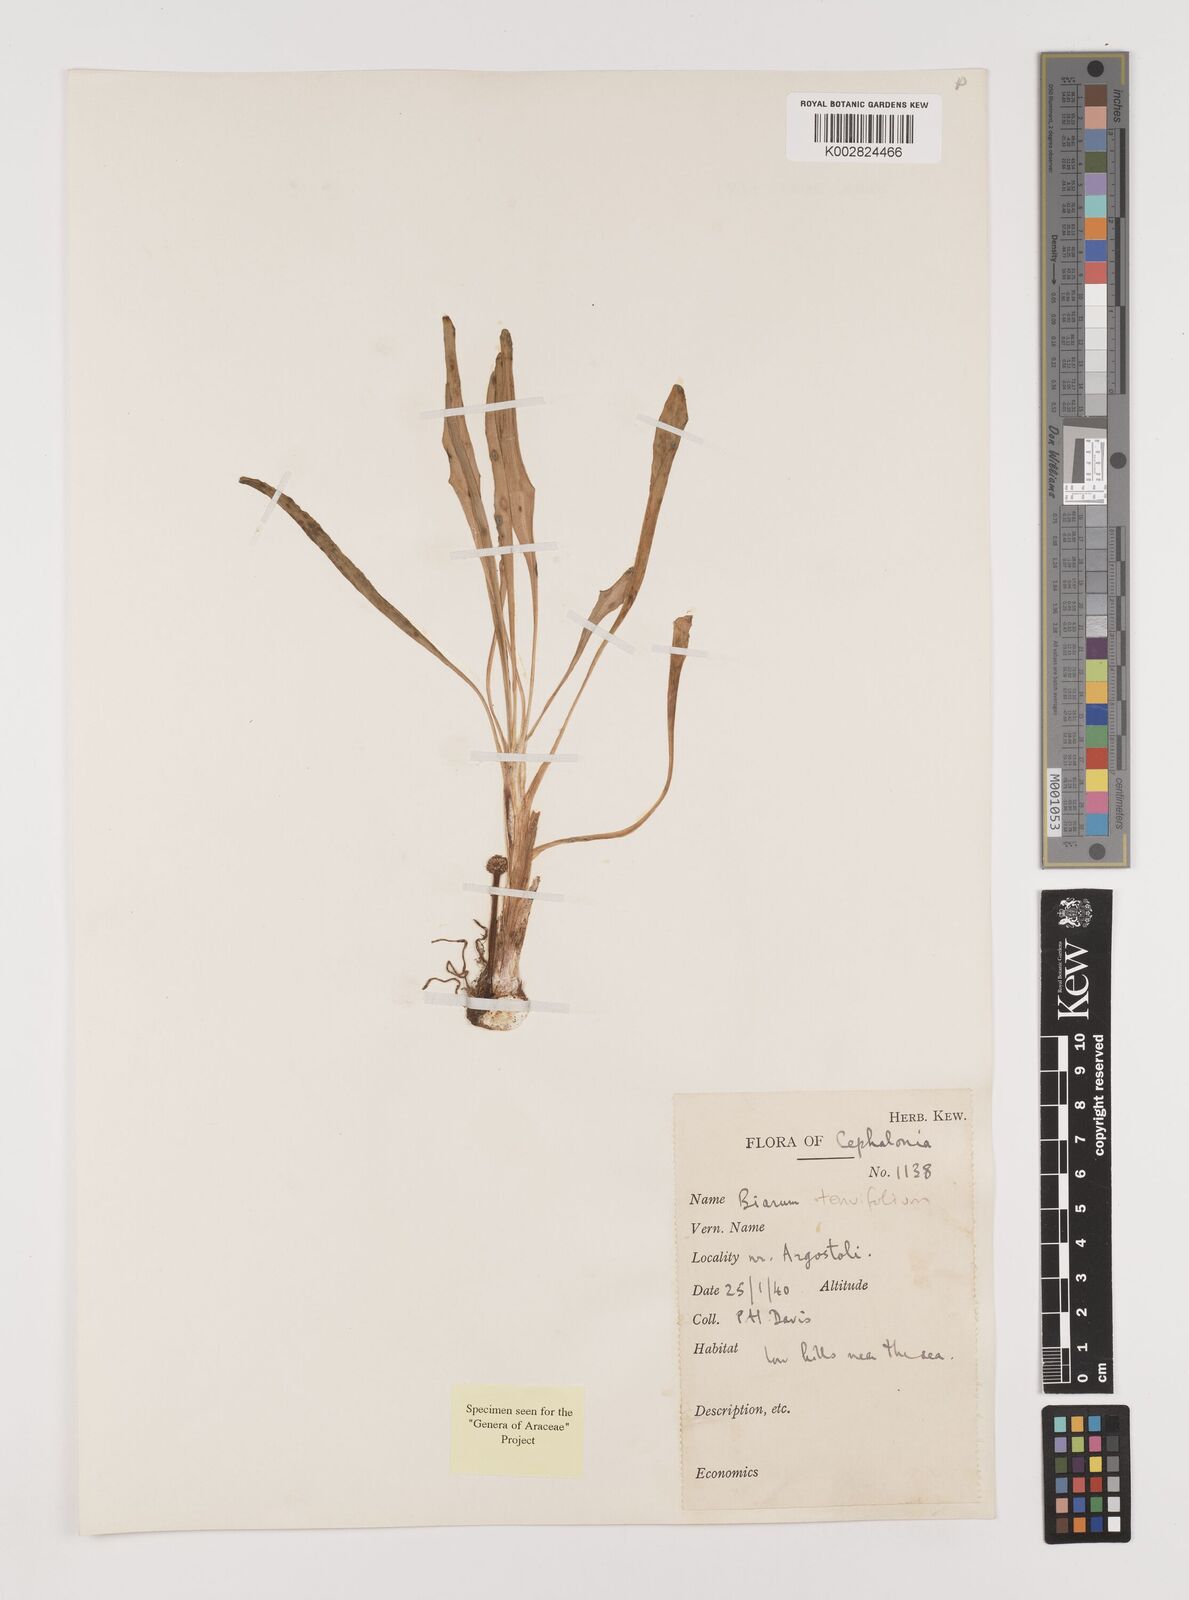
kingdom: Plantae
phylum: Tracheophyta
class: Liliopsida
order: Alismatales
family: Araceae
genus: Biarum
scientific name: Biarum tenuifolium
